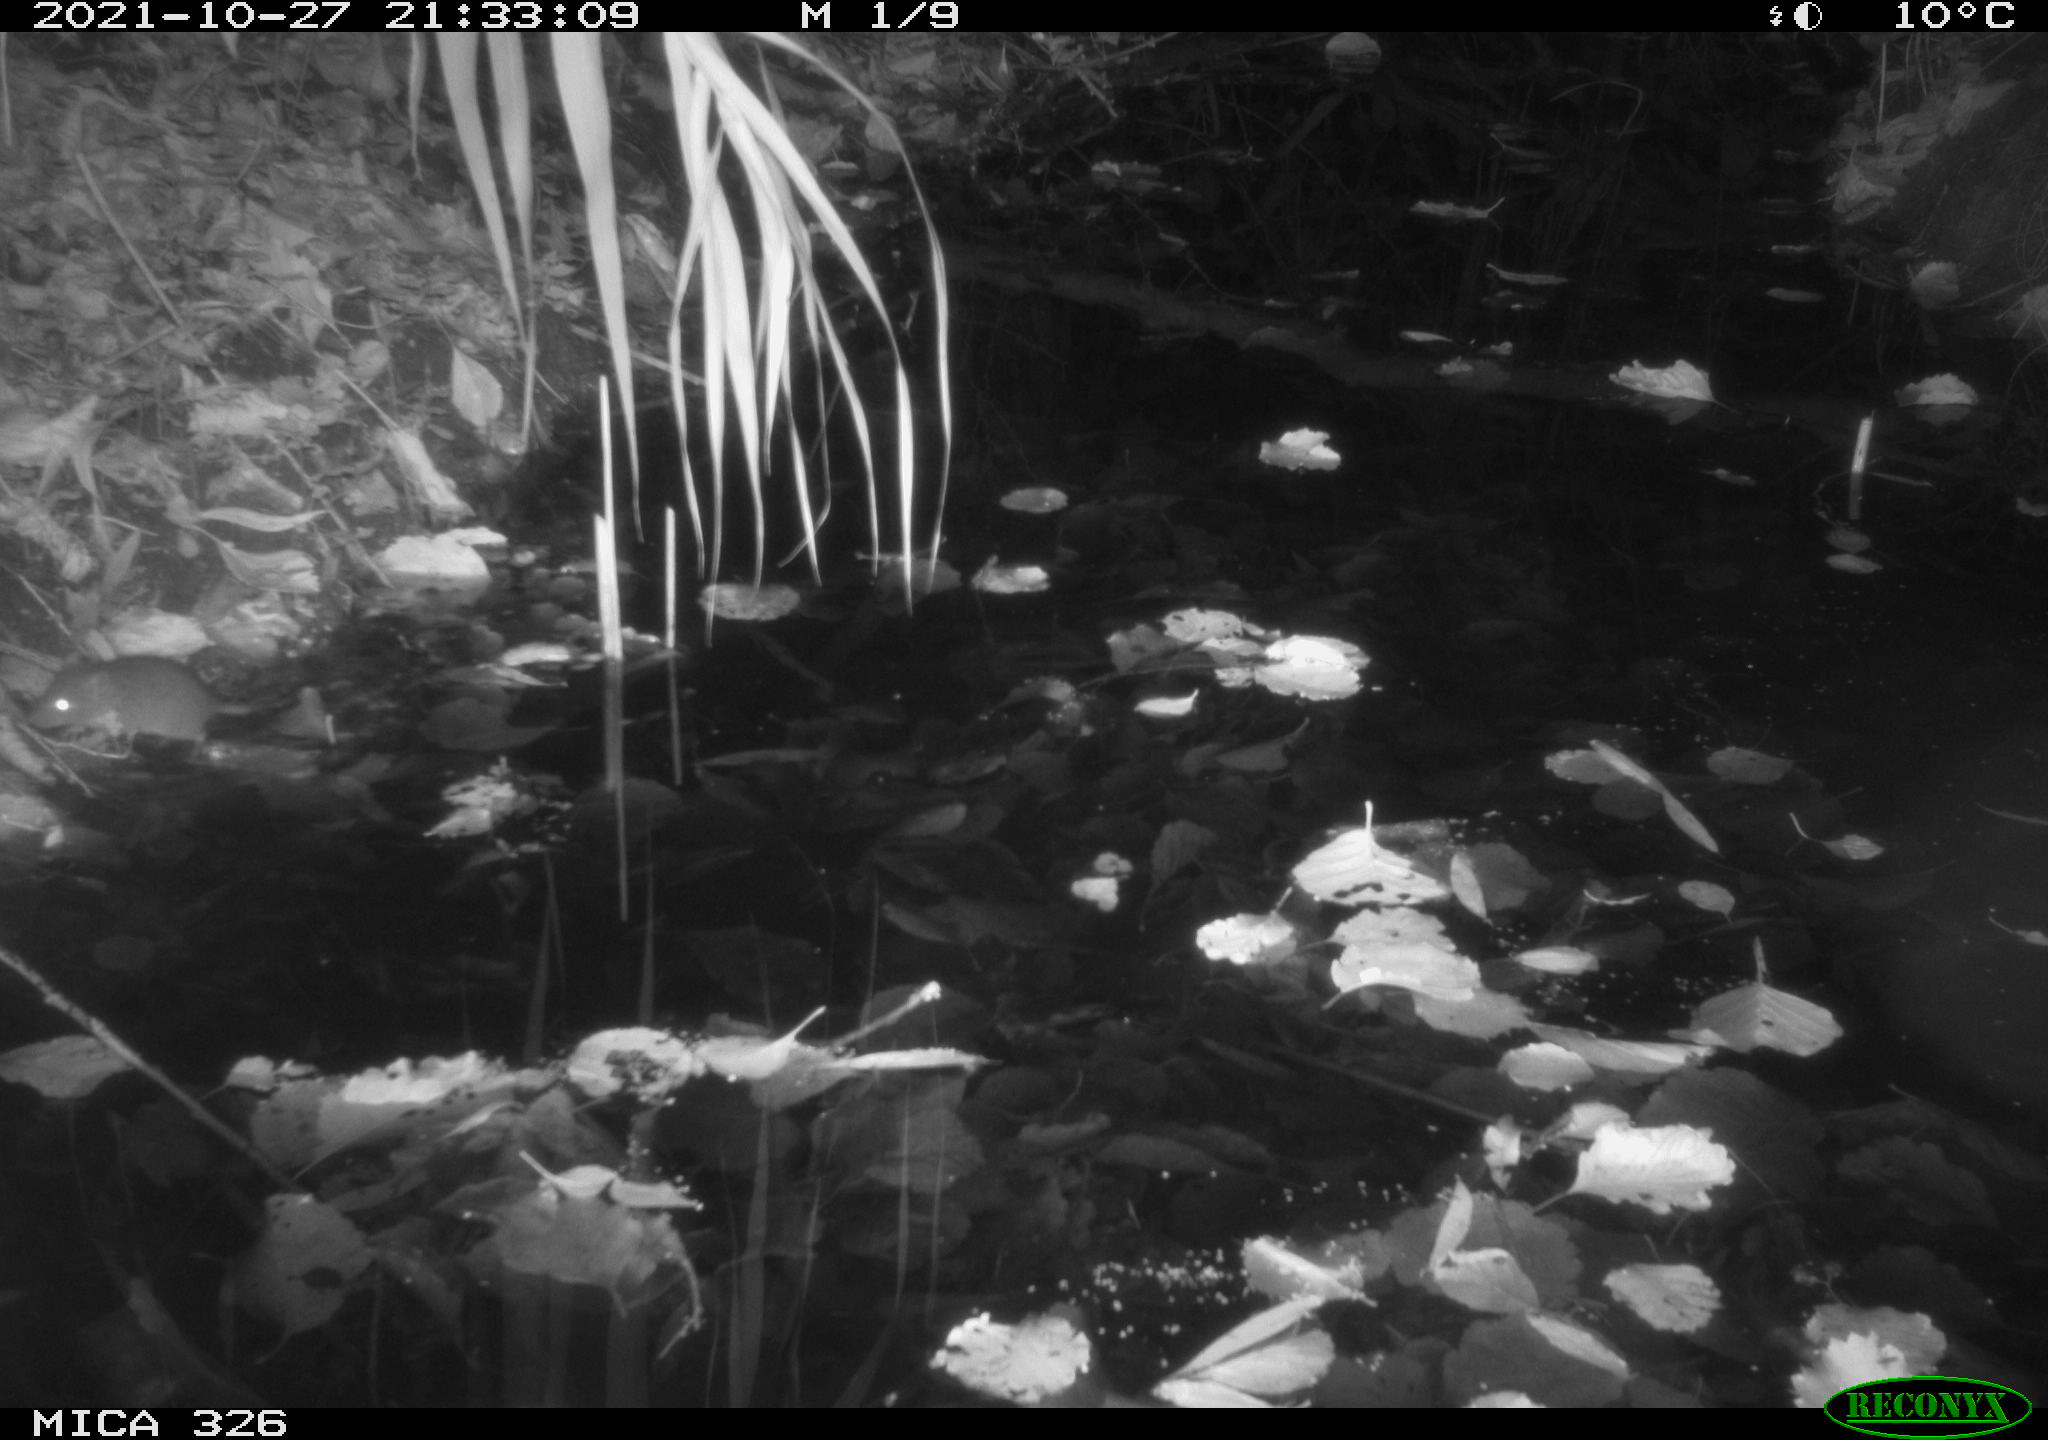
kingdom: Animalia
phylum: Chordata
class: Mammalia
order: Rodentia
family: Muridae
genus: Rattus
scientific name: Rattus norvegicus
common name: Brown rat
